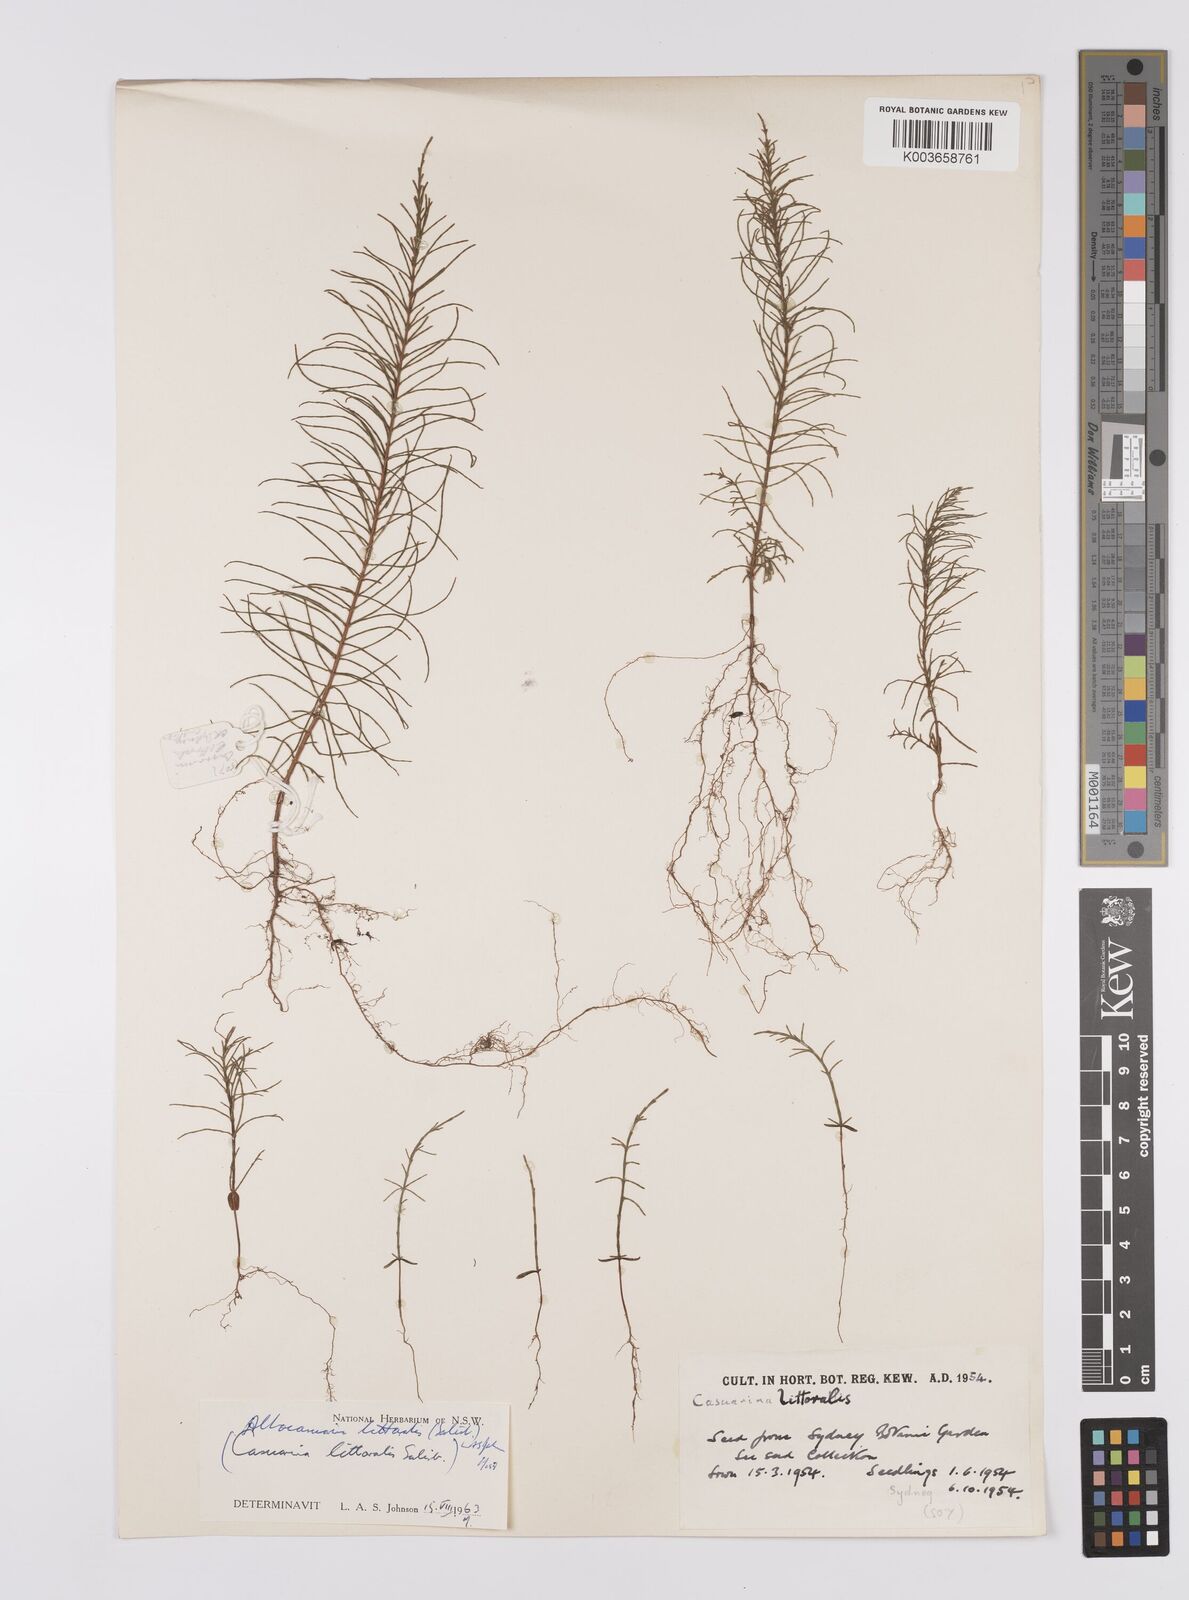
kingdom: Plantae
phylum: Tracheophyta
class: Magnoliopsida
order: Fagales
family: Casuarinaceae
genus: Allocasuarina
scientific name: Allocasuarina littoralis
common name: Black she-oak
